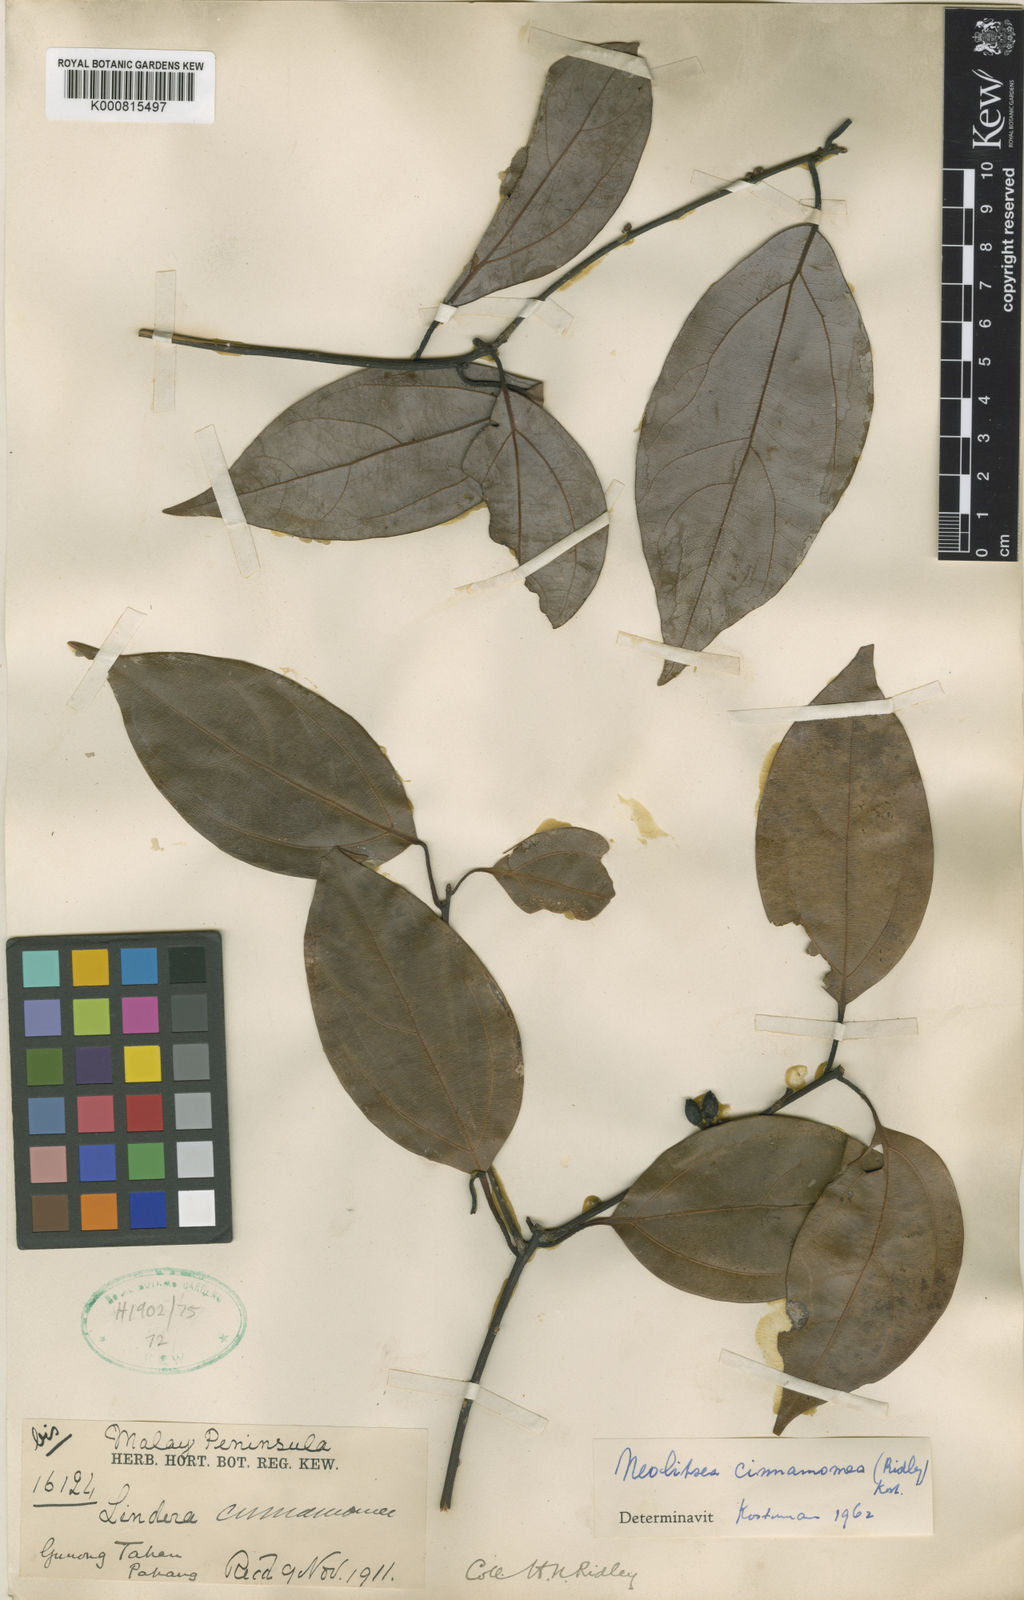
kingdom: Plantae
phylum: Tracheophyta
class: Magnoliopsida
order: Laurales
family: Lauraceae
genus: Neolitsea
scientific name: Neolitsea cinnamomea
